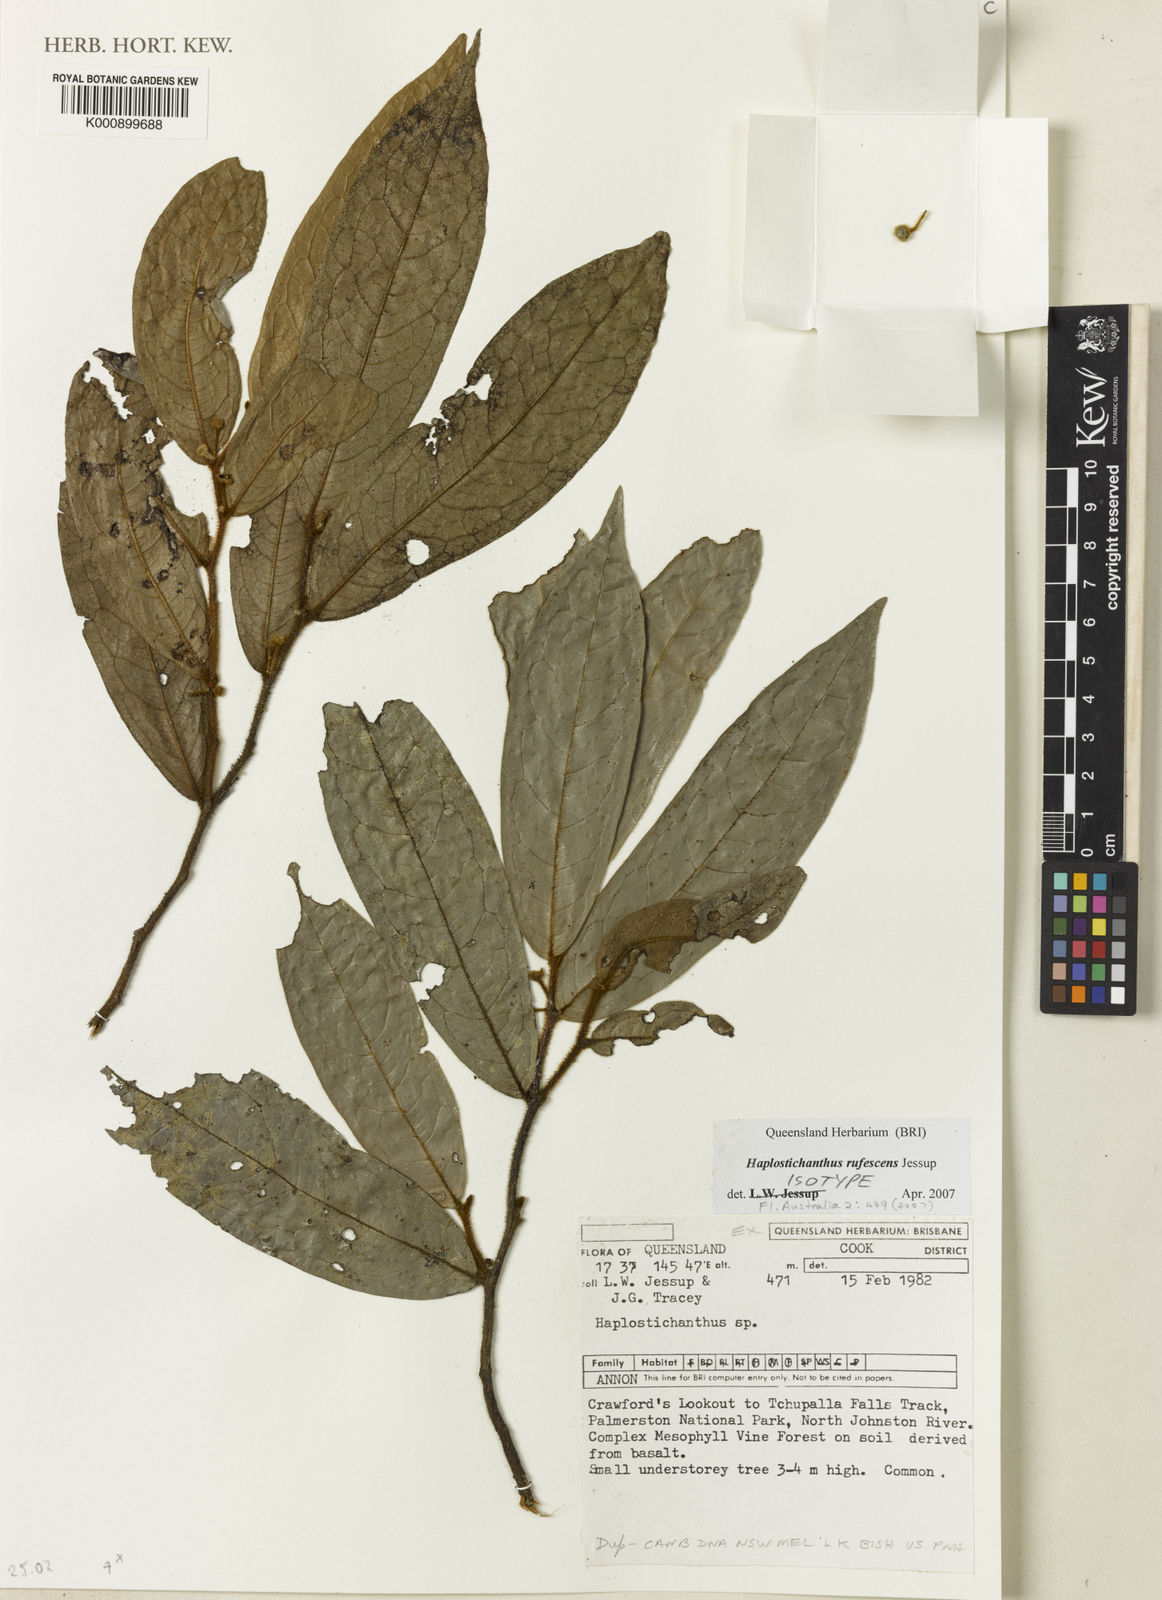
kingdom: Plantae
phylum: Tracheophyta
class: Magnoliopsida
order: Magnoliales
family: Annonaceae
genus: Haplostichanthus
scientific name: Haplostichanthus rufescens
